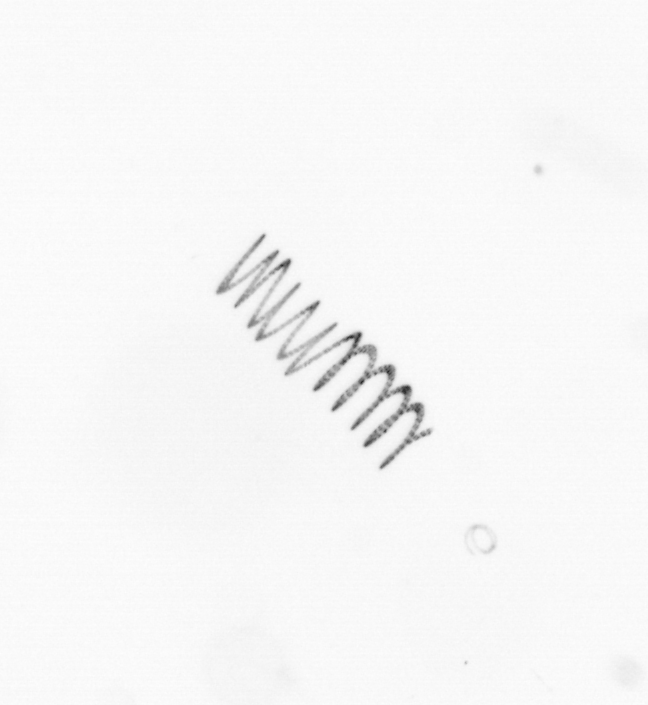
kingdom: Chromista
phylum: Ochrophyta
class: Bacillariophyceae
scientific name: Bacillariophyceae
